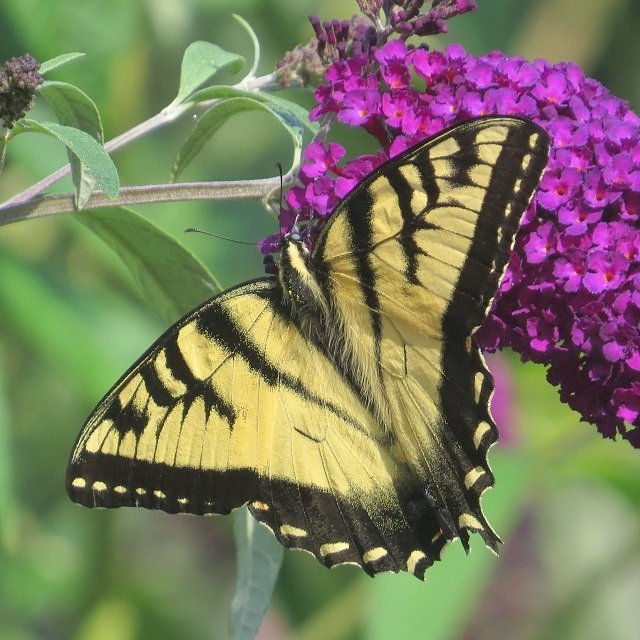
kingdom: Animalia
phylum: Arthropoda
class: Insecta
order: Lepidoptera
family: Papilionidae
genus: Pterourus
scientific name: Pterourus glaucus
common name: Eastern Tiger Swallowtail
